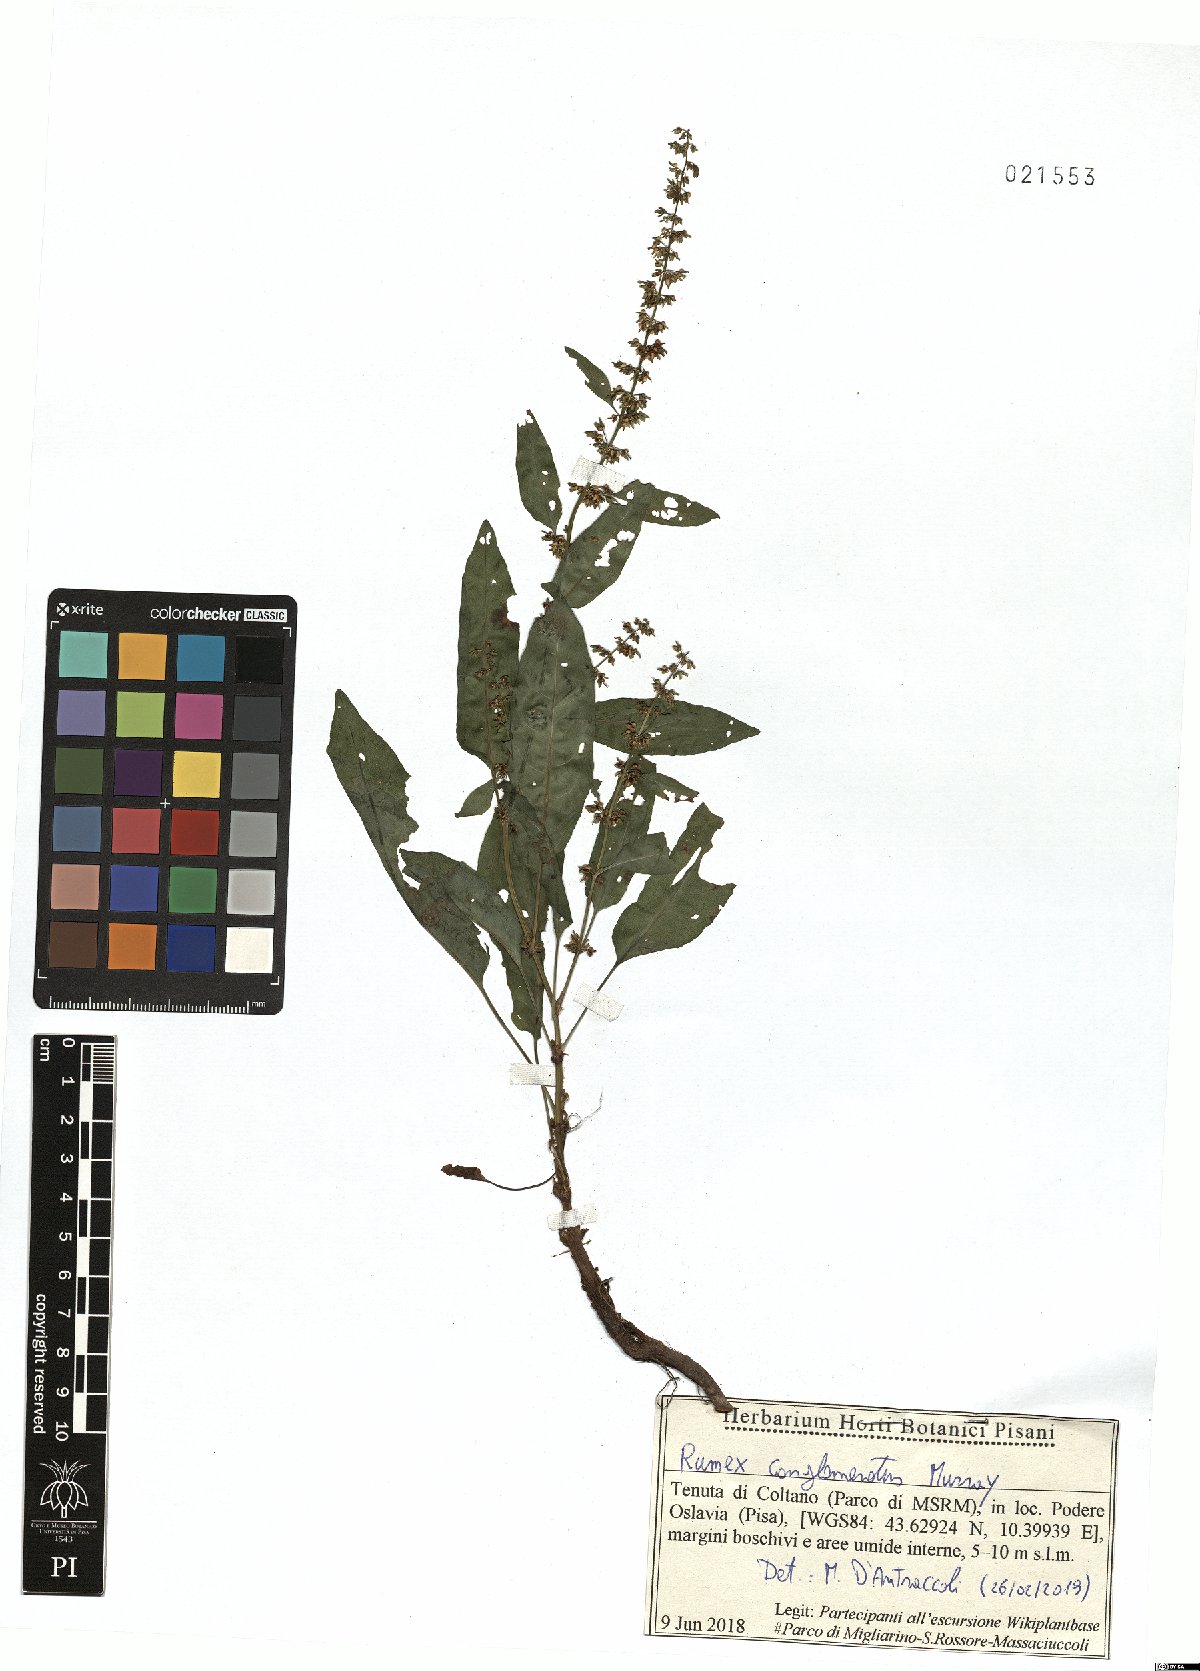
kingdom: Plantae
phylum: Tracheophyta
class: Magnoliopsida
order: Caryophyllales
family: Polygonaceae
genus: Rumex
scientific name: Rumex conglomeratus
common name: Clustered dock
